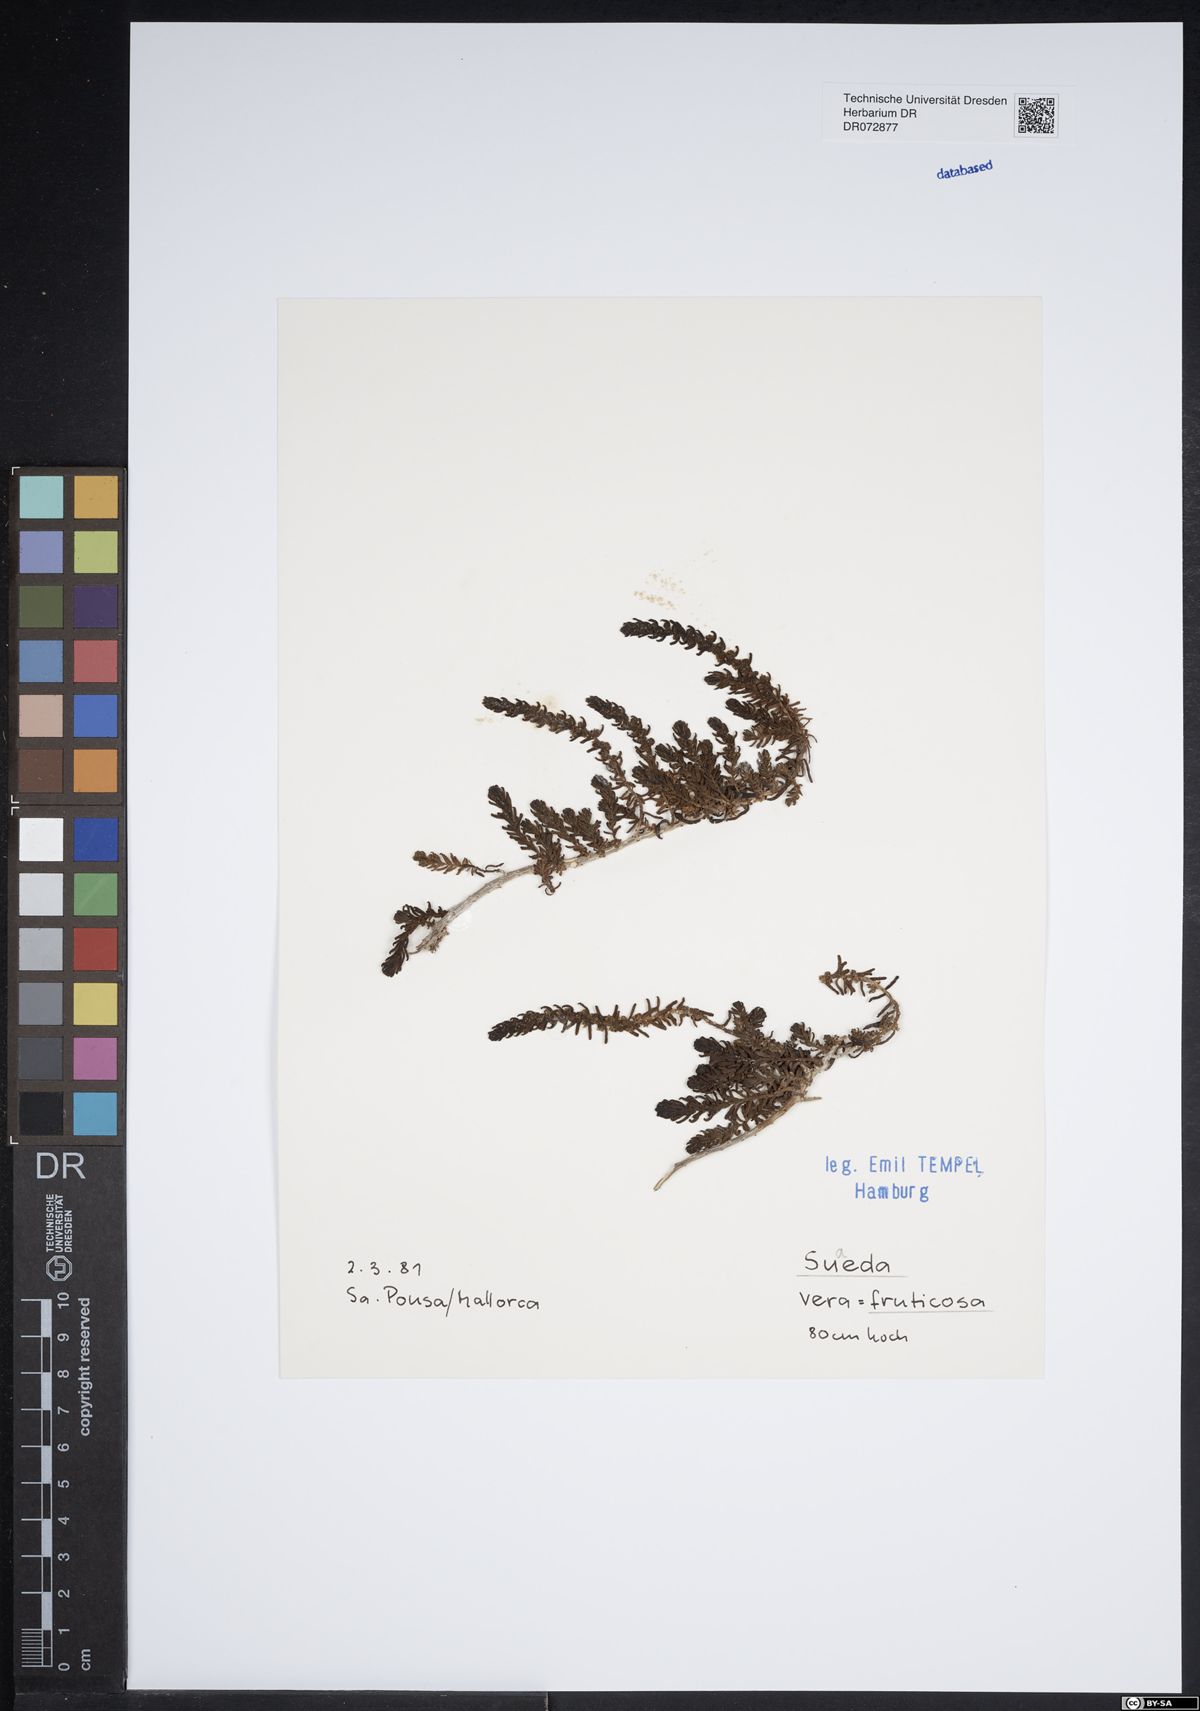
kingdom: Plantae
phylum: Tracheophyta
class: Magnoliopsida
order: Caryophyllales
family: Amaranthaceae
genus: Suaeda
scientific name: Suaeda fruticosa
